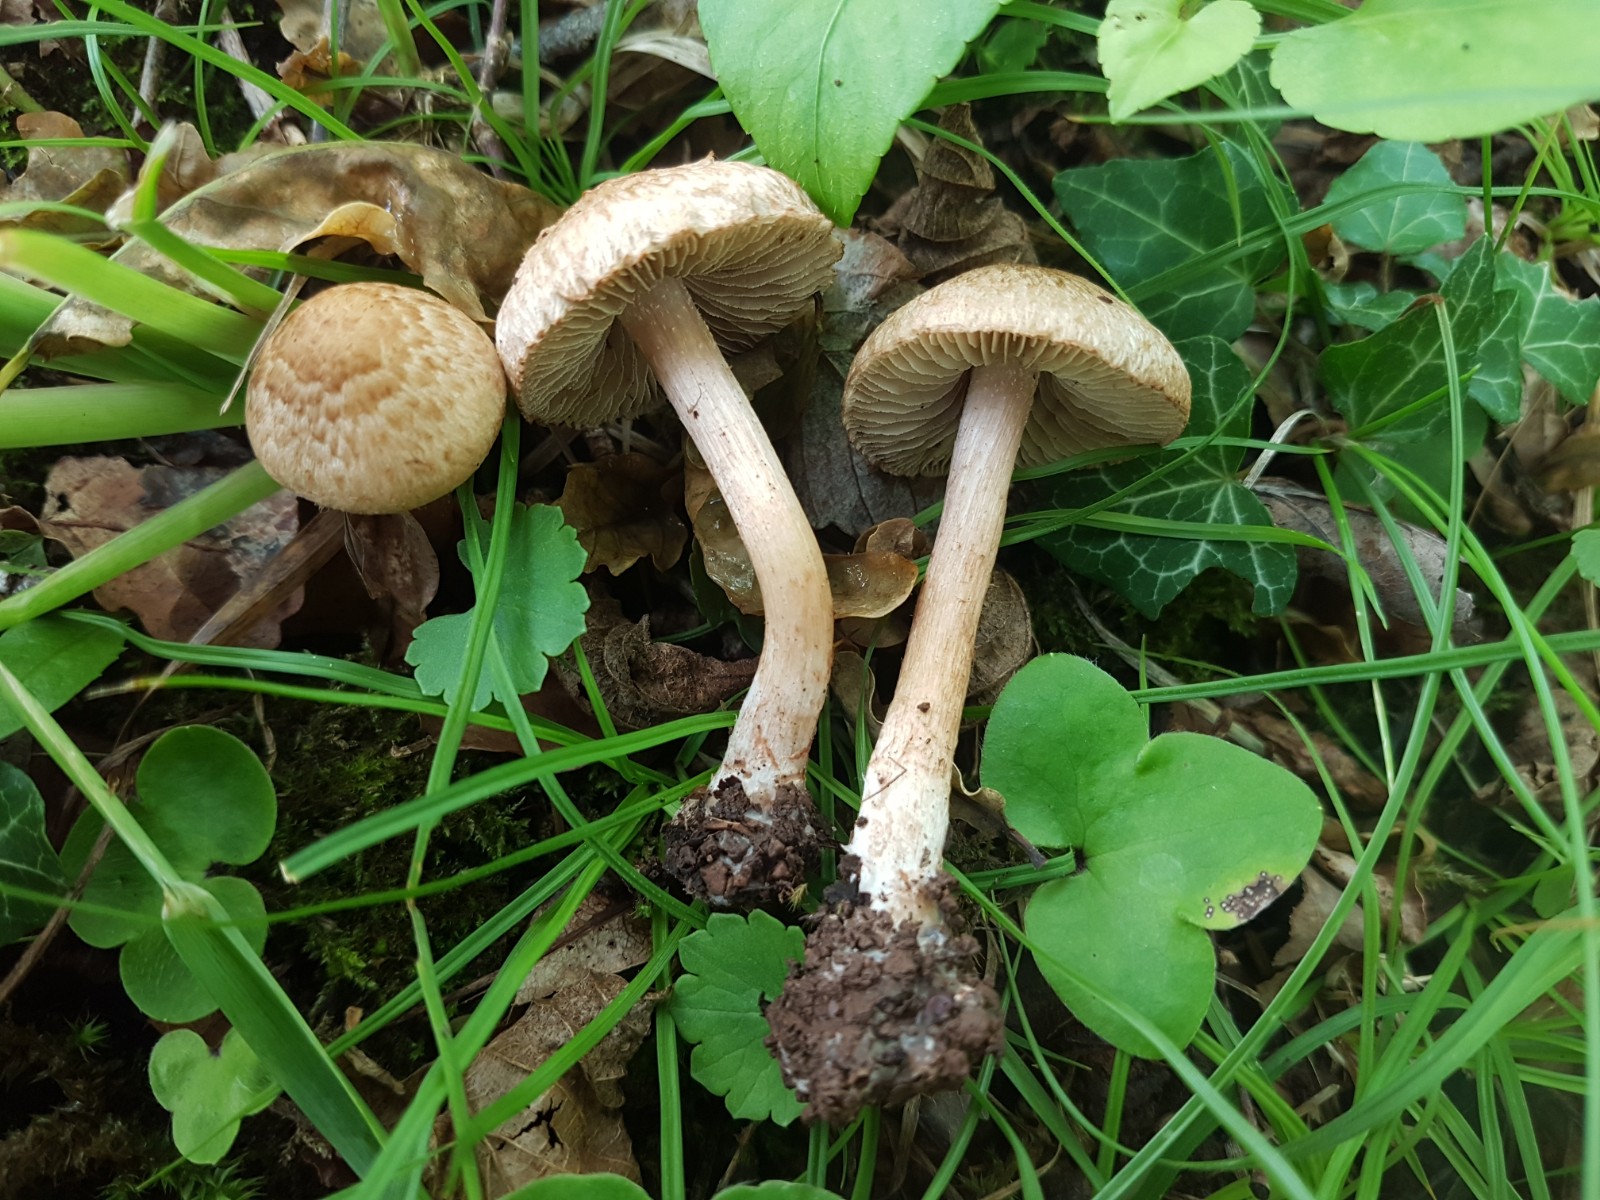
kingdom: Fungi
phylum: Basidiomycota
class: Agaricomycetes
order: Agaricales
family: Inocybaceae
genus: Inosperma
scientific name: Inosperma bongardii
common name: Bongards trævlhat
